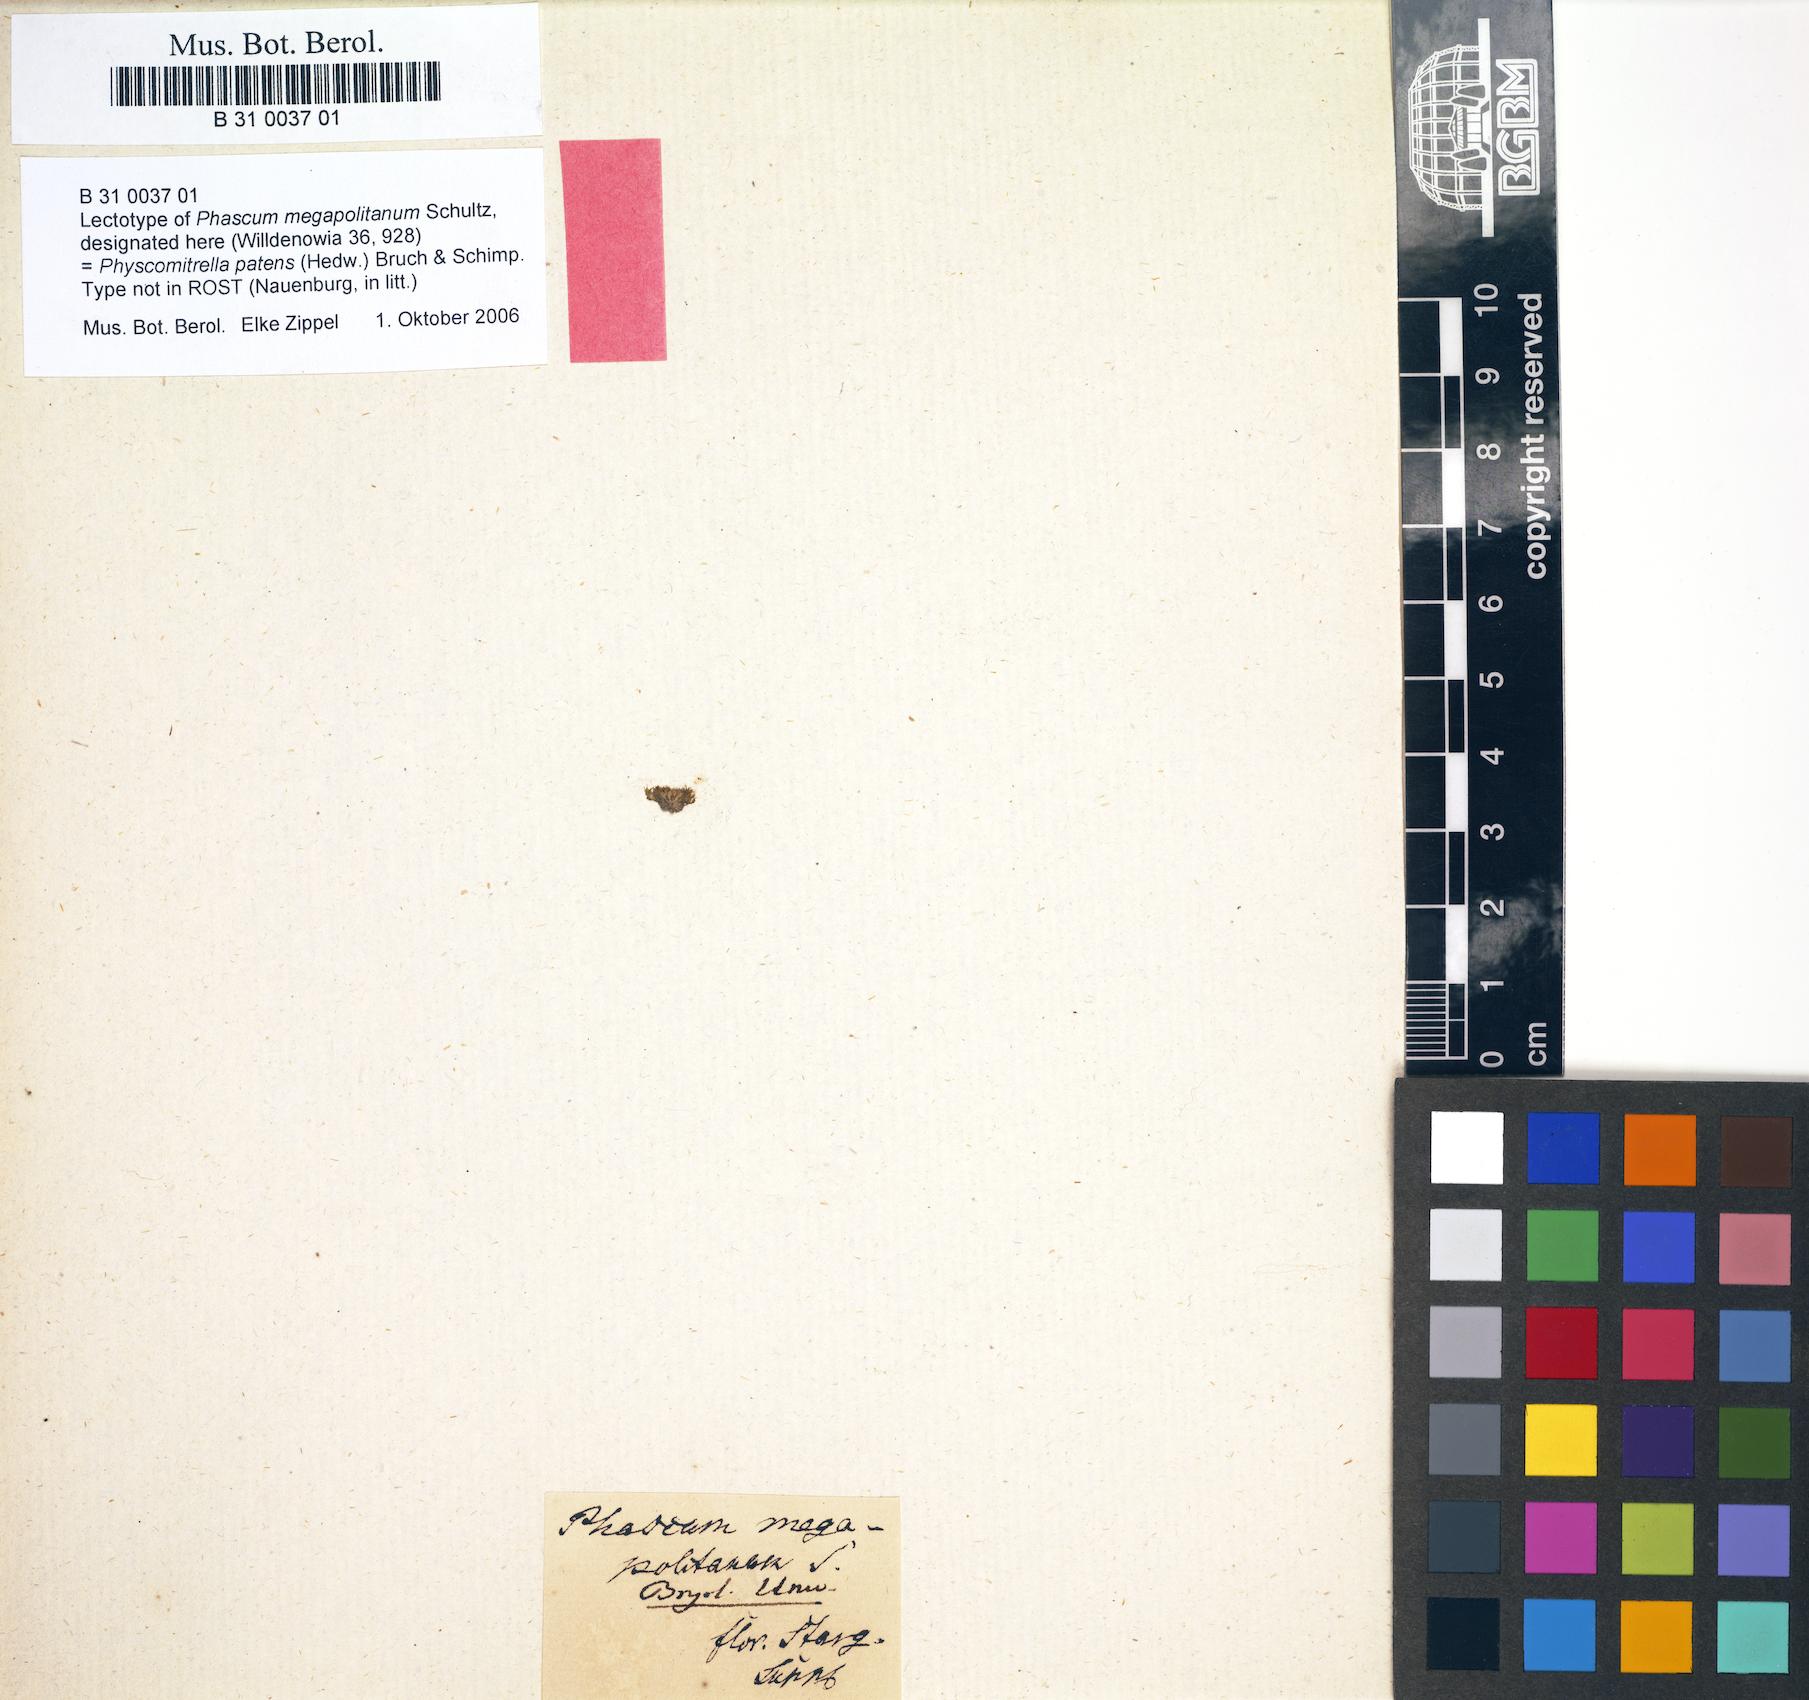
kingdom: Plantae
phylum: Bryophyta
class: Bryopsida
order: Funariales
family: Funariaceae
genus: Physcomitrium
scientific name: Physcomitrium patens
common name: Spreading earth-moss
